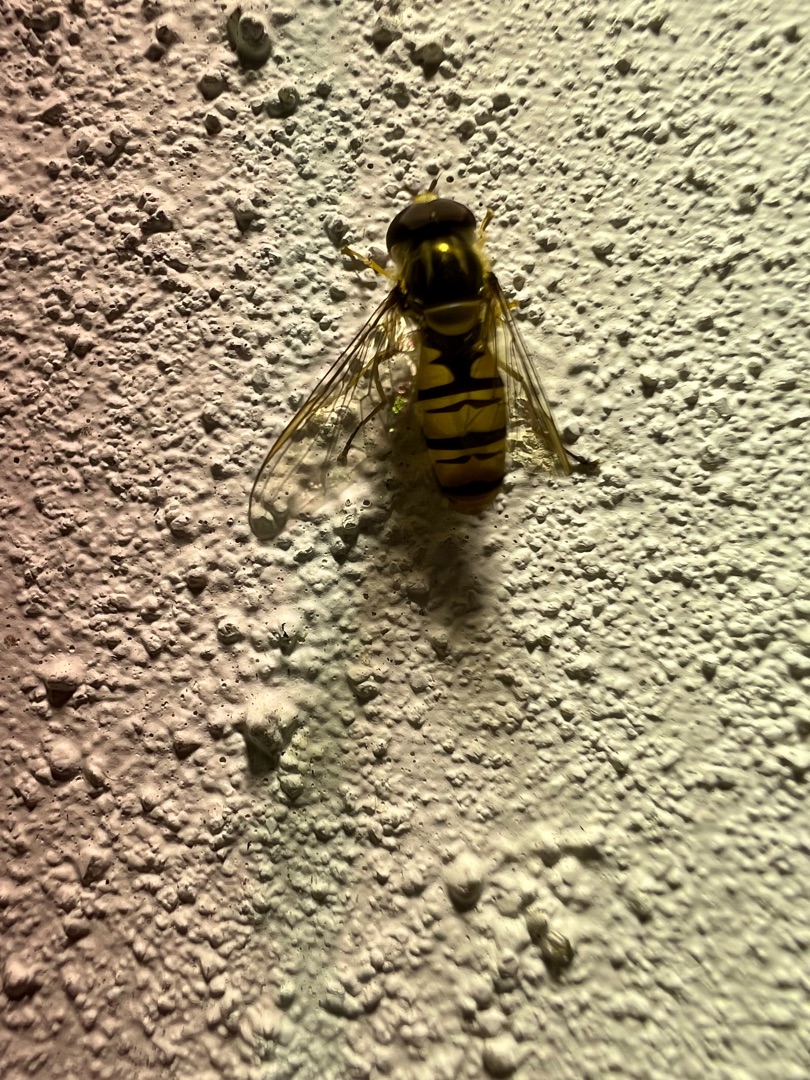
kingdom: Animalia
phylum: Arthropoda
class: Insecta
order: Diptera
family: Syrphidae
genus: Episyrphus
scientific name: Episyrphus balteatus
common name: Dobbeltbåndet svirreflue
